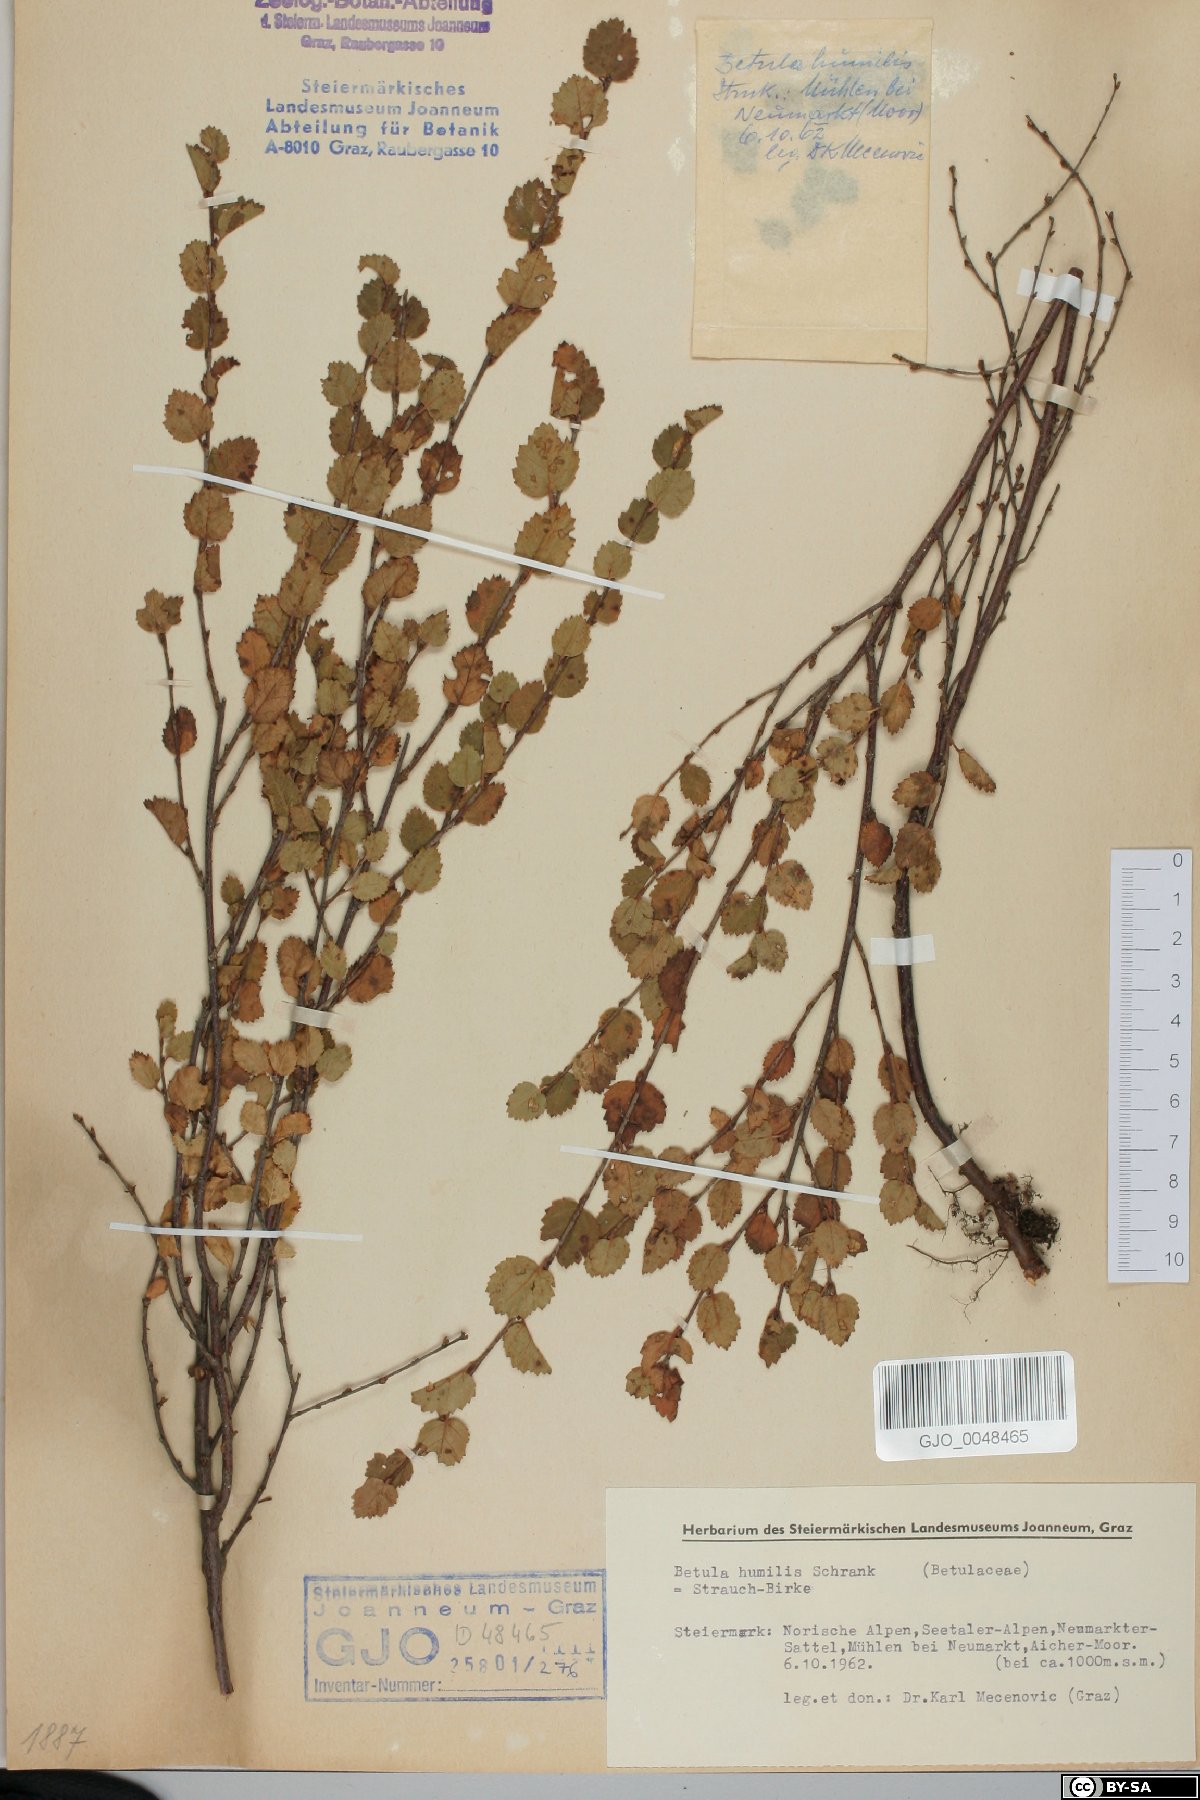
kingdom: Plantae
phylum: Tracheophyta
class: Magnoliopsida
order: Fagales
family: Betulaceae
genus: Betula
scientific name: Betula humilis
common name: Shrubby birch
